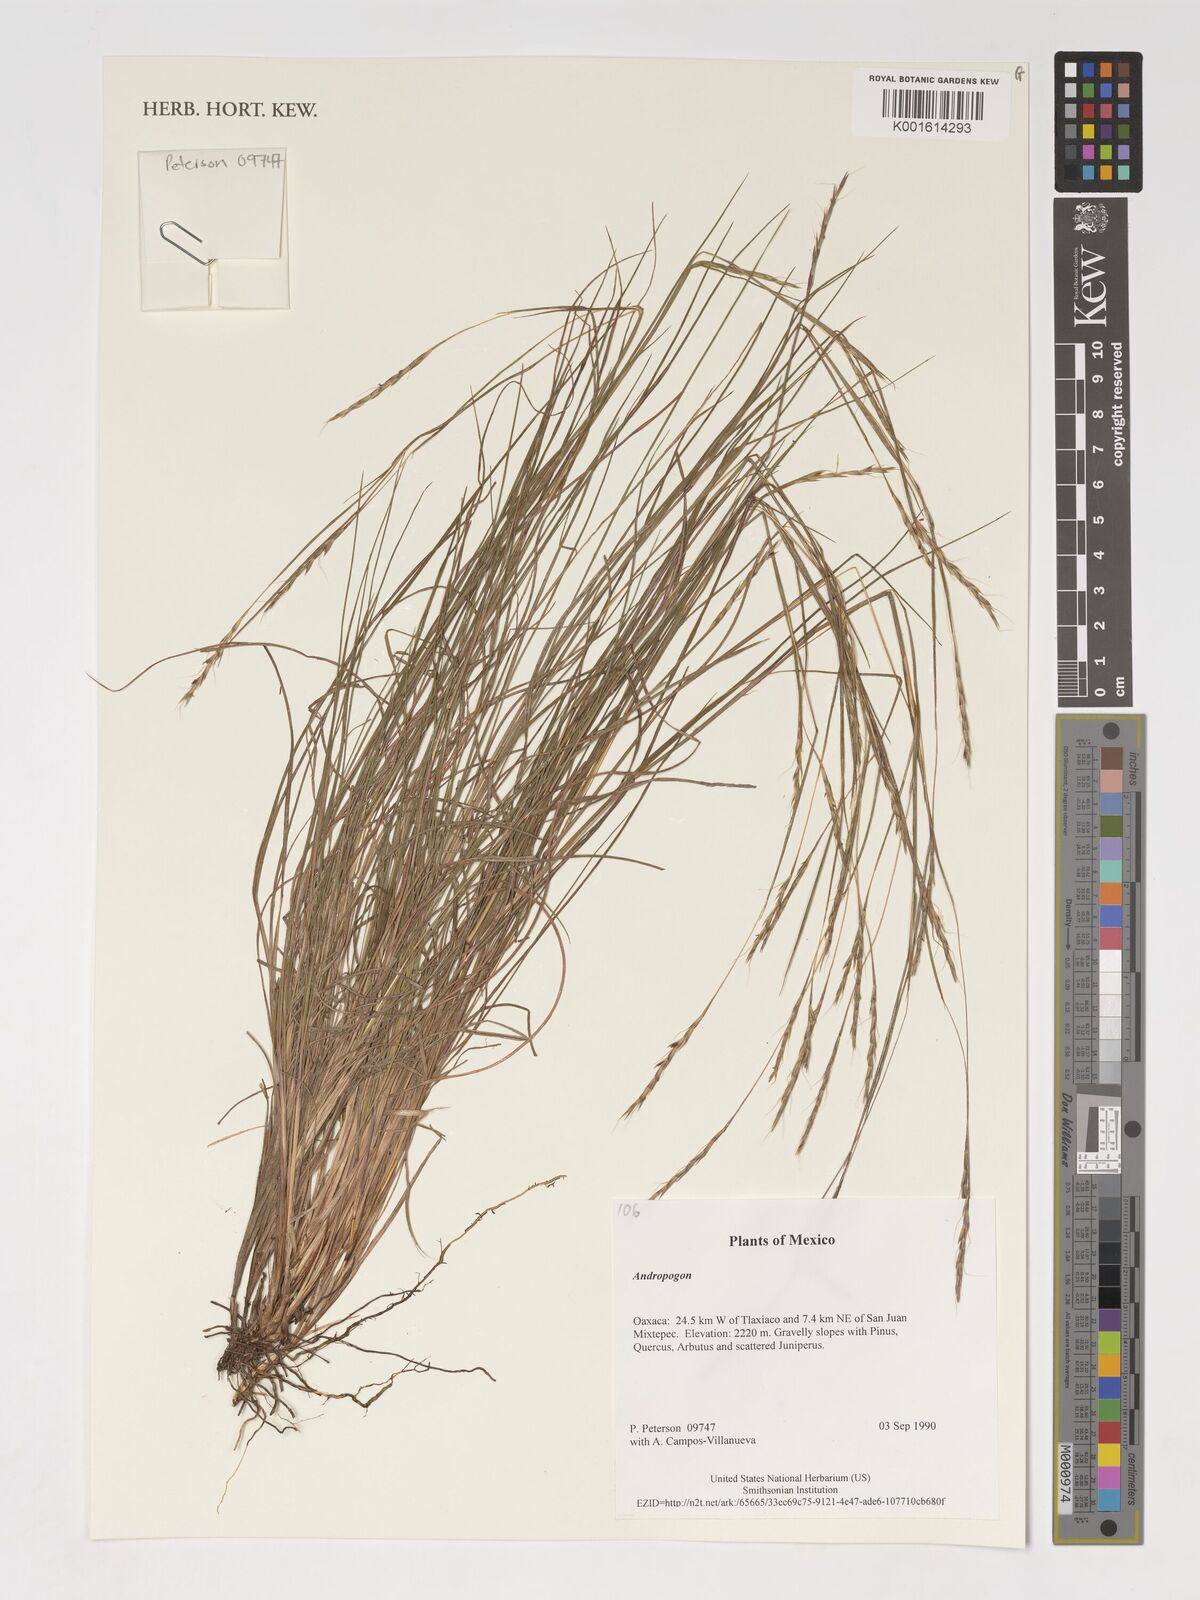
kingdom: Plantae
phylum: Tracheophyta
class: Liliopsida
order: Poales
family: Poaceae
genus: Andropogon
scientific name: Andropogon
